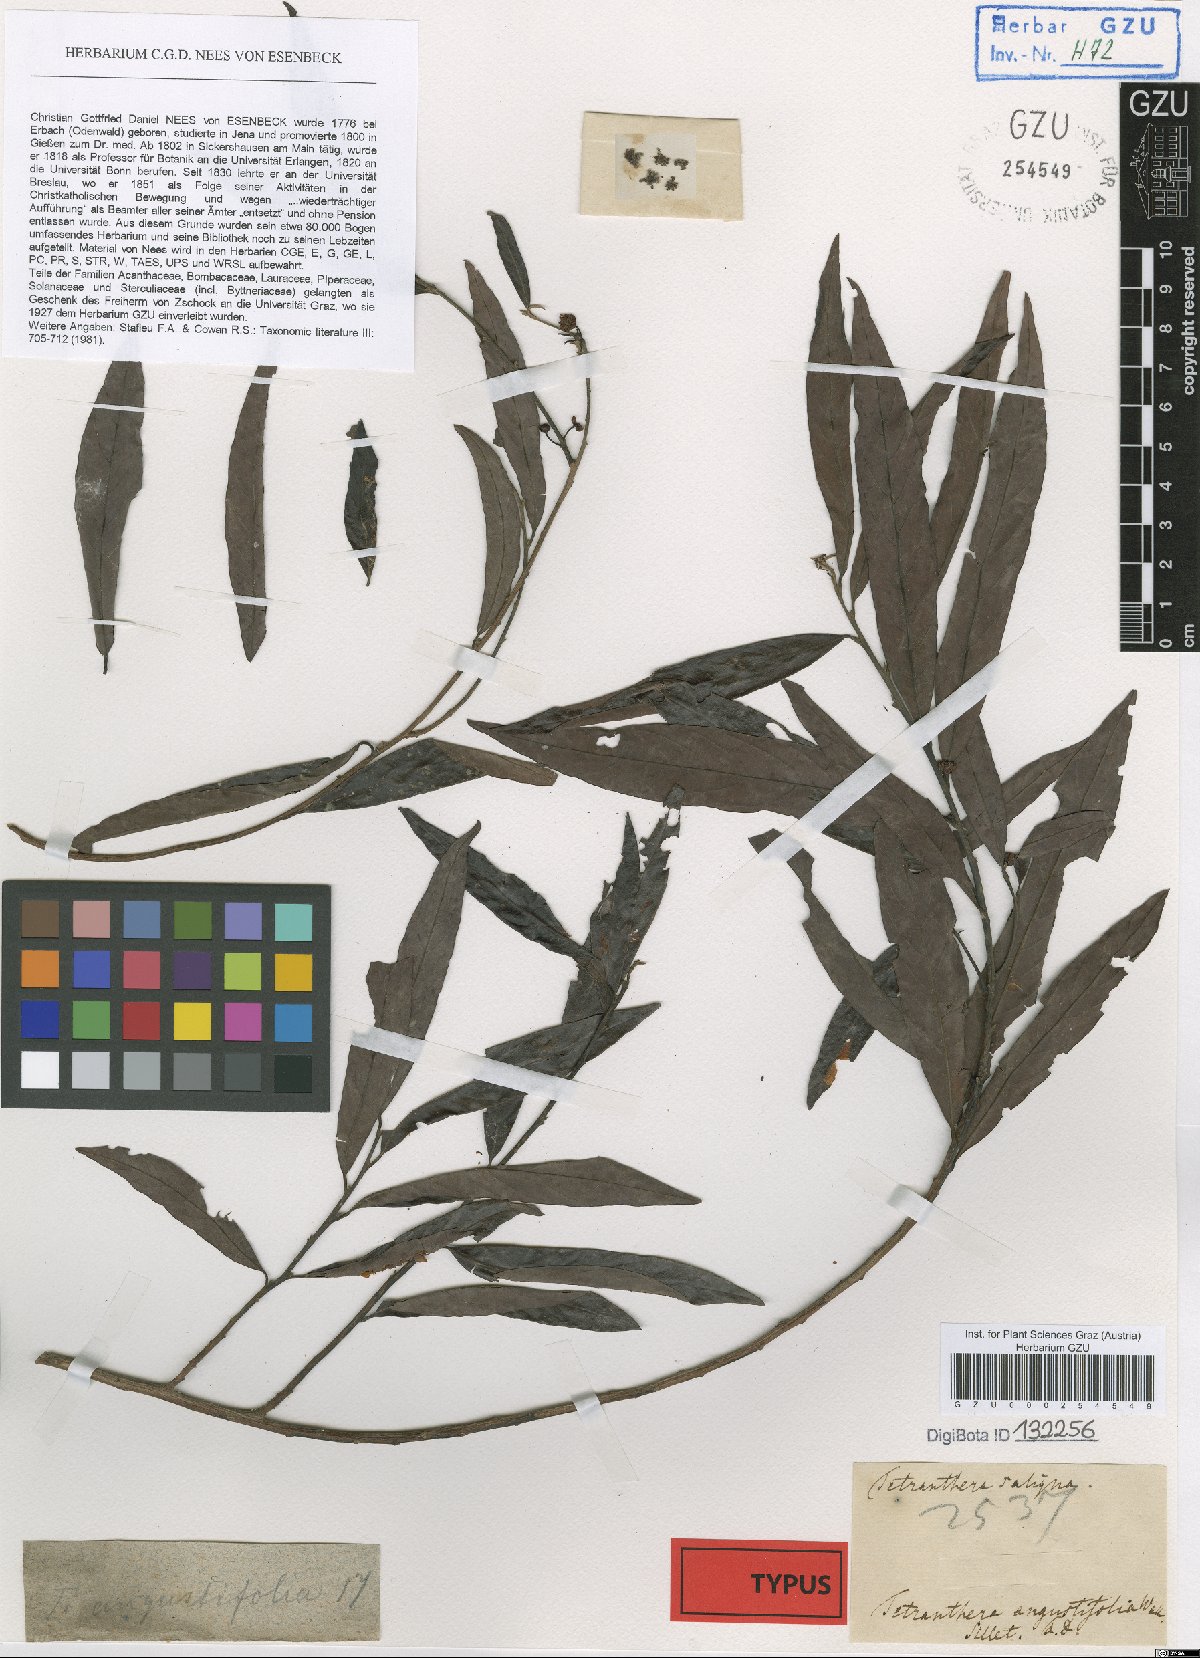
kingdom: Plantae
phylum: Tracheophyta
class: Magnoliopsida
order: Laurales
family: Lauraceae
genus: Litsea
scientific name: Litsea saligna
